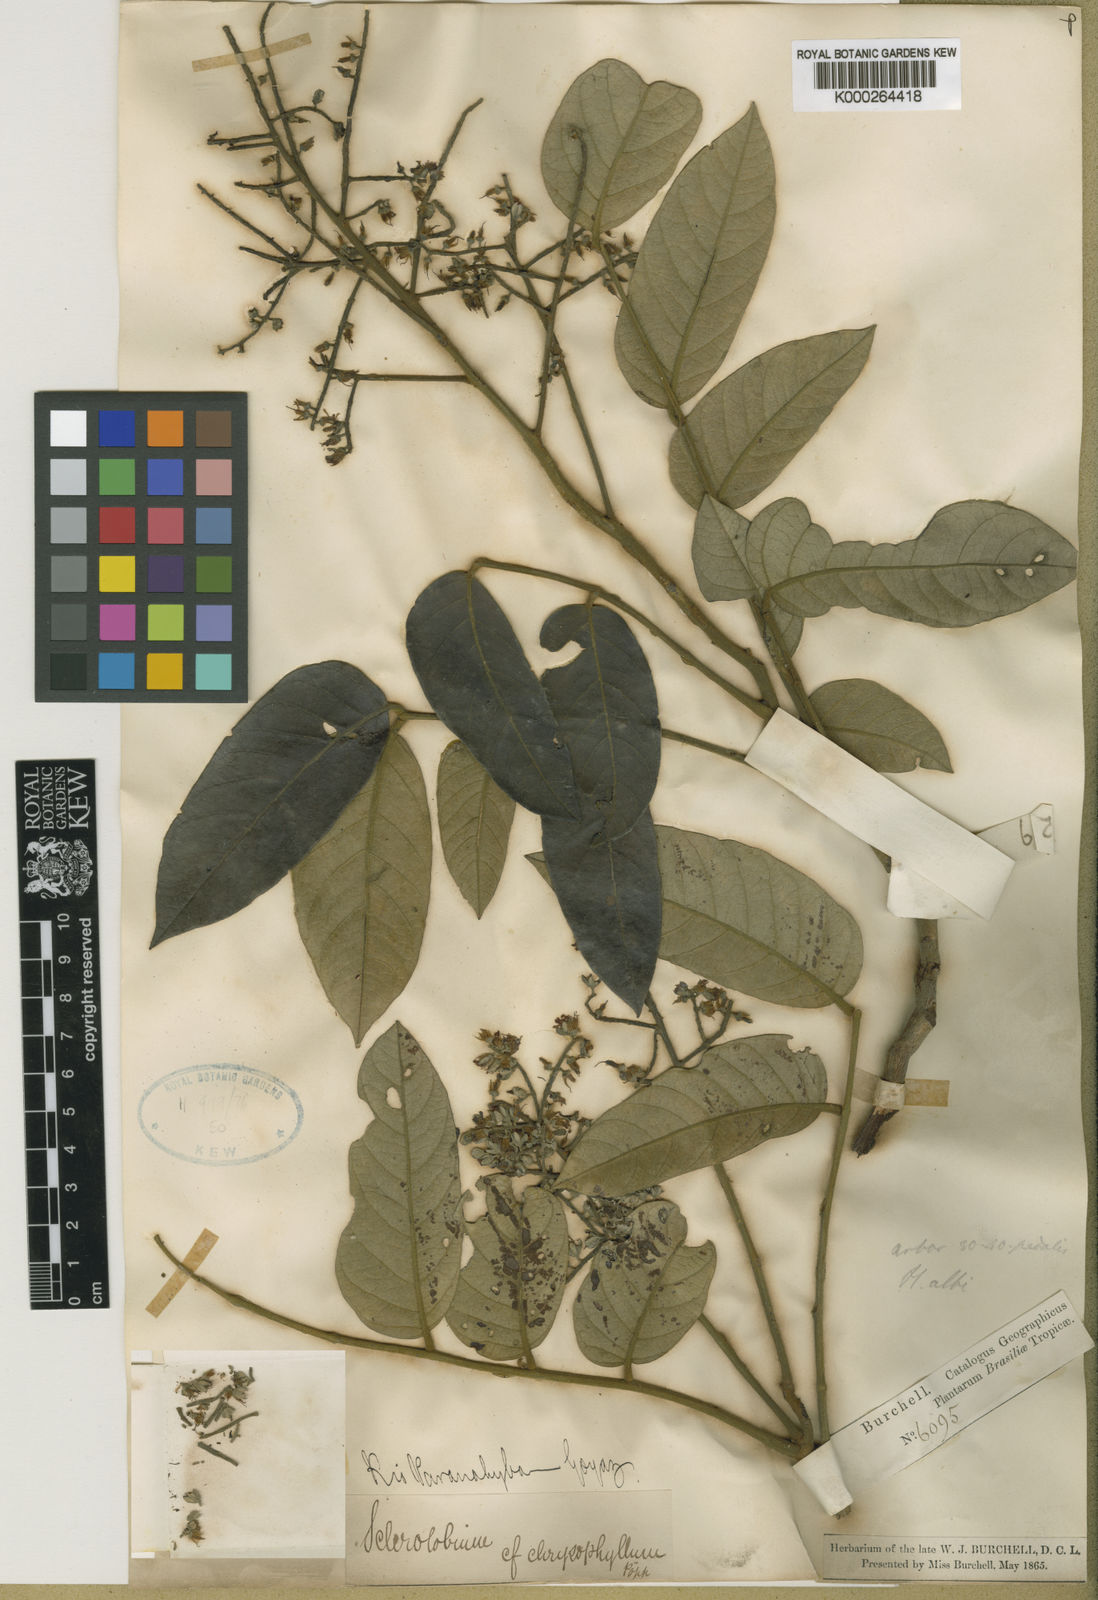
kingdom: Plantae
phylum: Tracheophyta
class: Magnoliopsida
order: Fabales
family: Fabaceae
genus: Tachigali
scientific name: Tachigali rubiginosa
